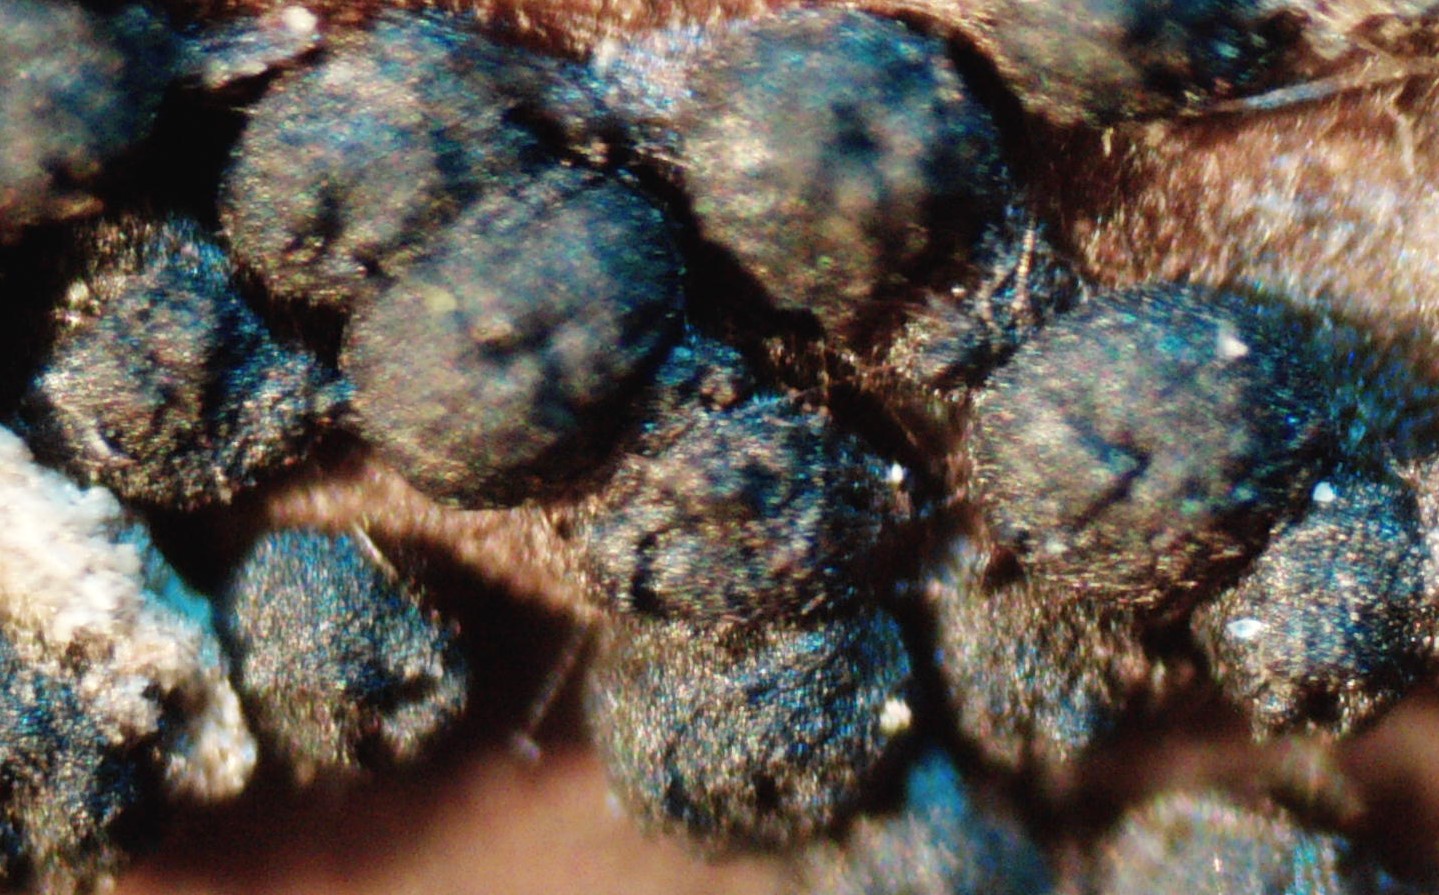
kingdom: Fungi
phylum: Ascomycota
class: Sordariomycetes
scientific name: Sordariomycetes
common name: kernesvampklassen
